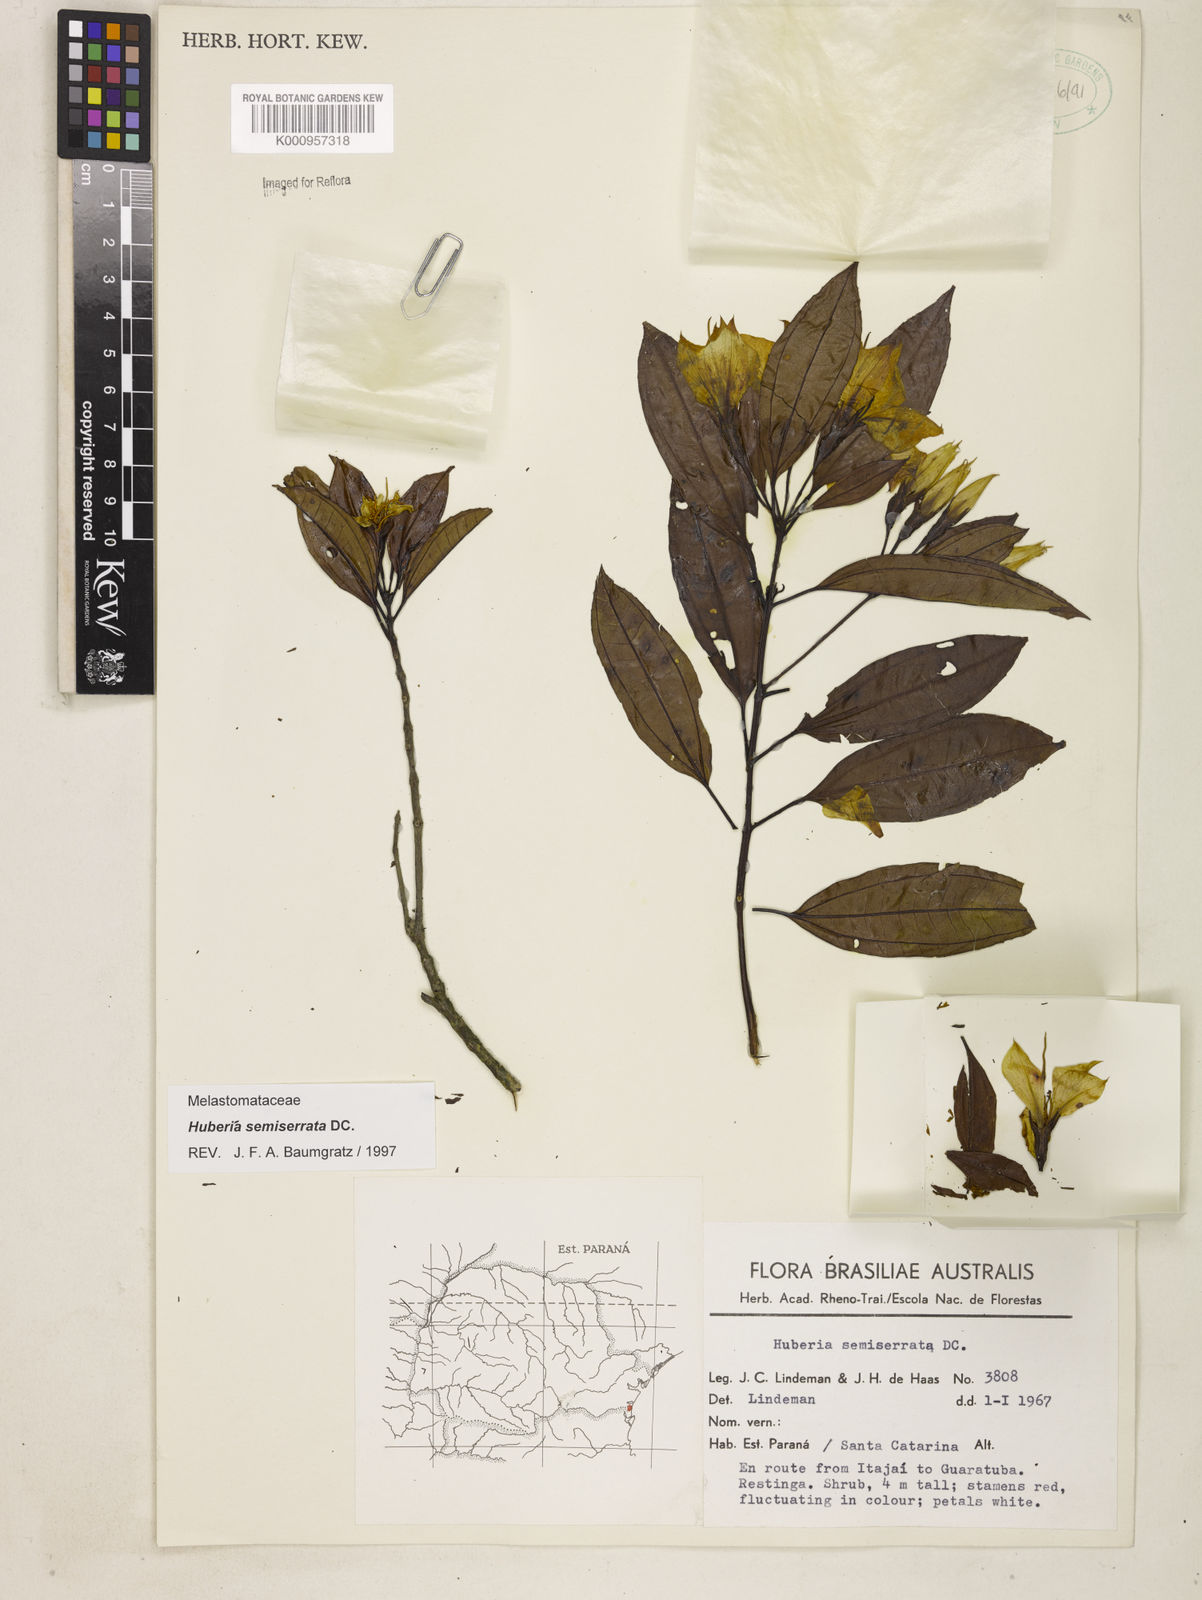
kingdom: Plantae
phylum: Tracheophyta
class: Magnoliopsida
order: Myrtales
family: Melastomataceae
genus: Huberia
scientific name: Huberia semiserrata
